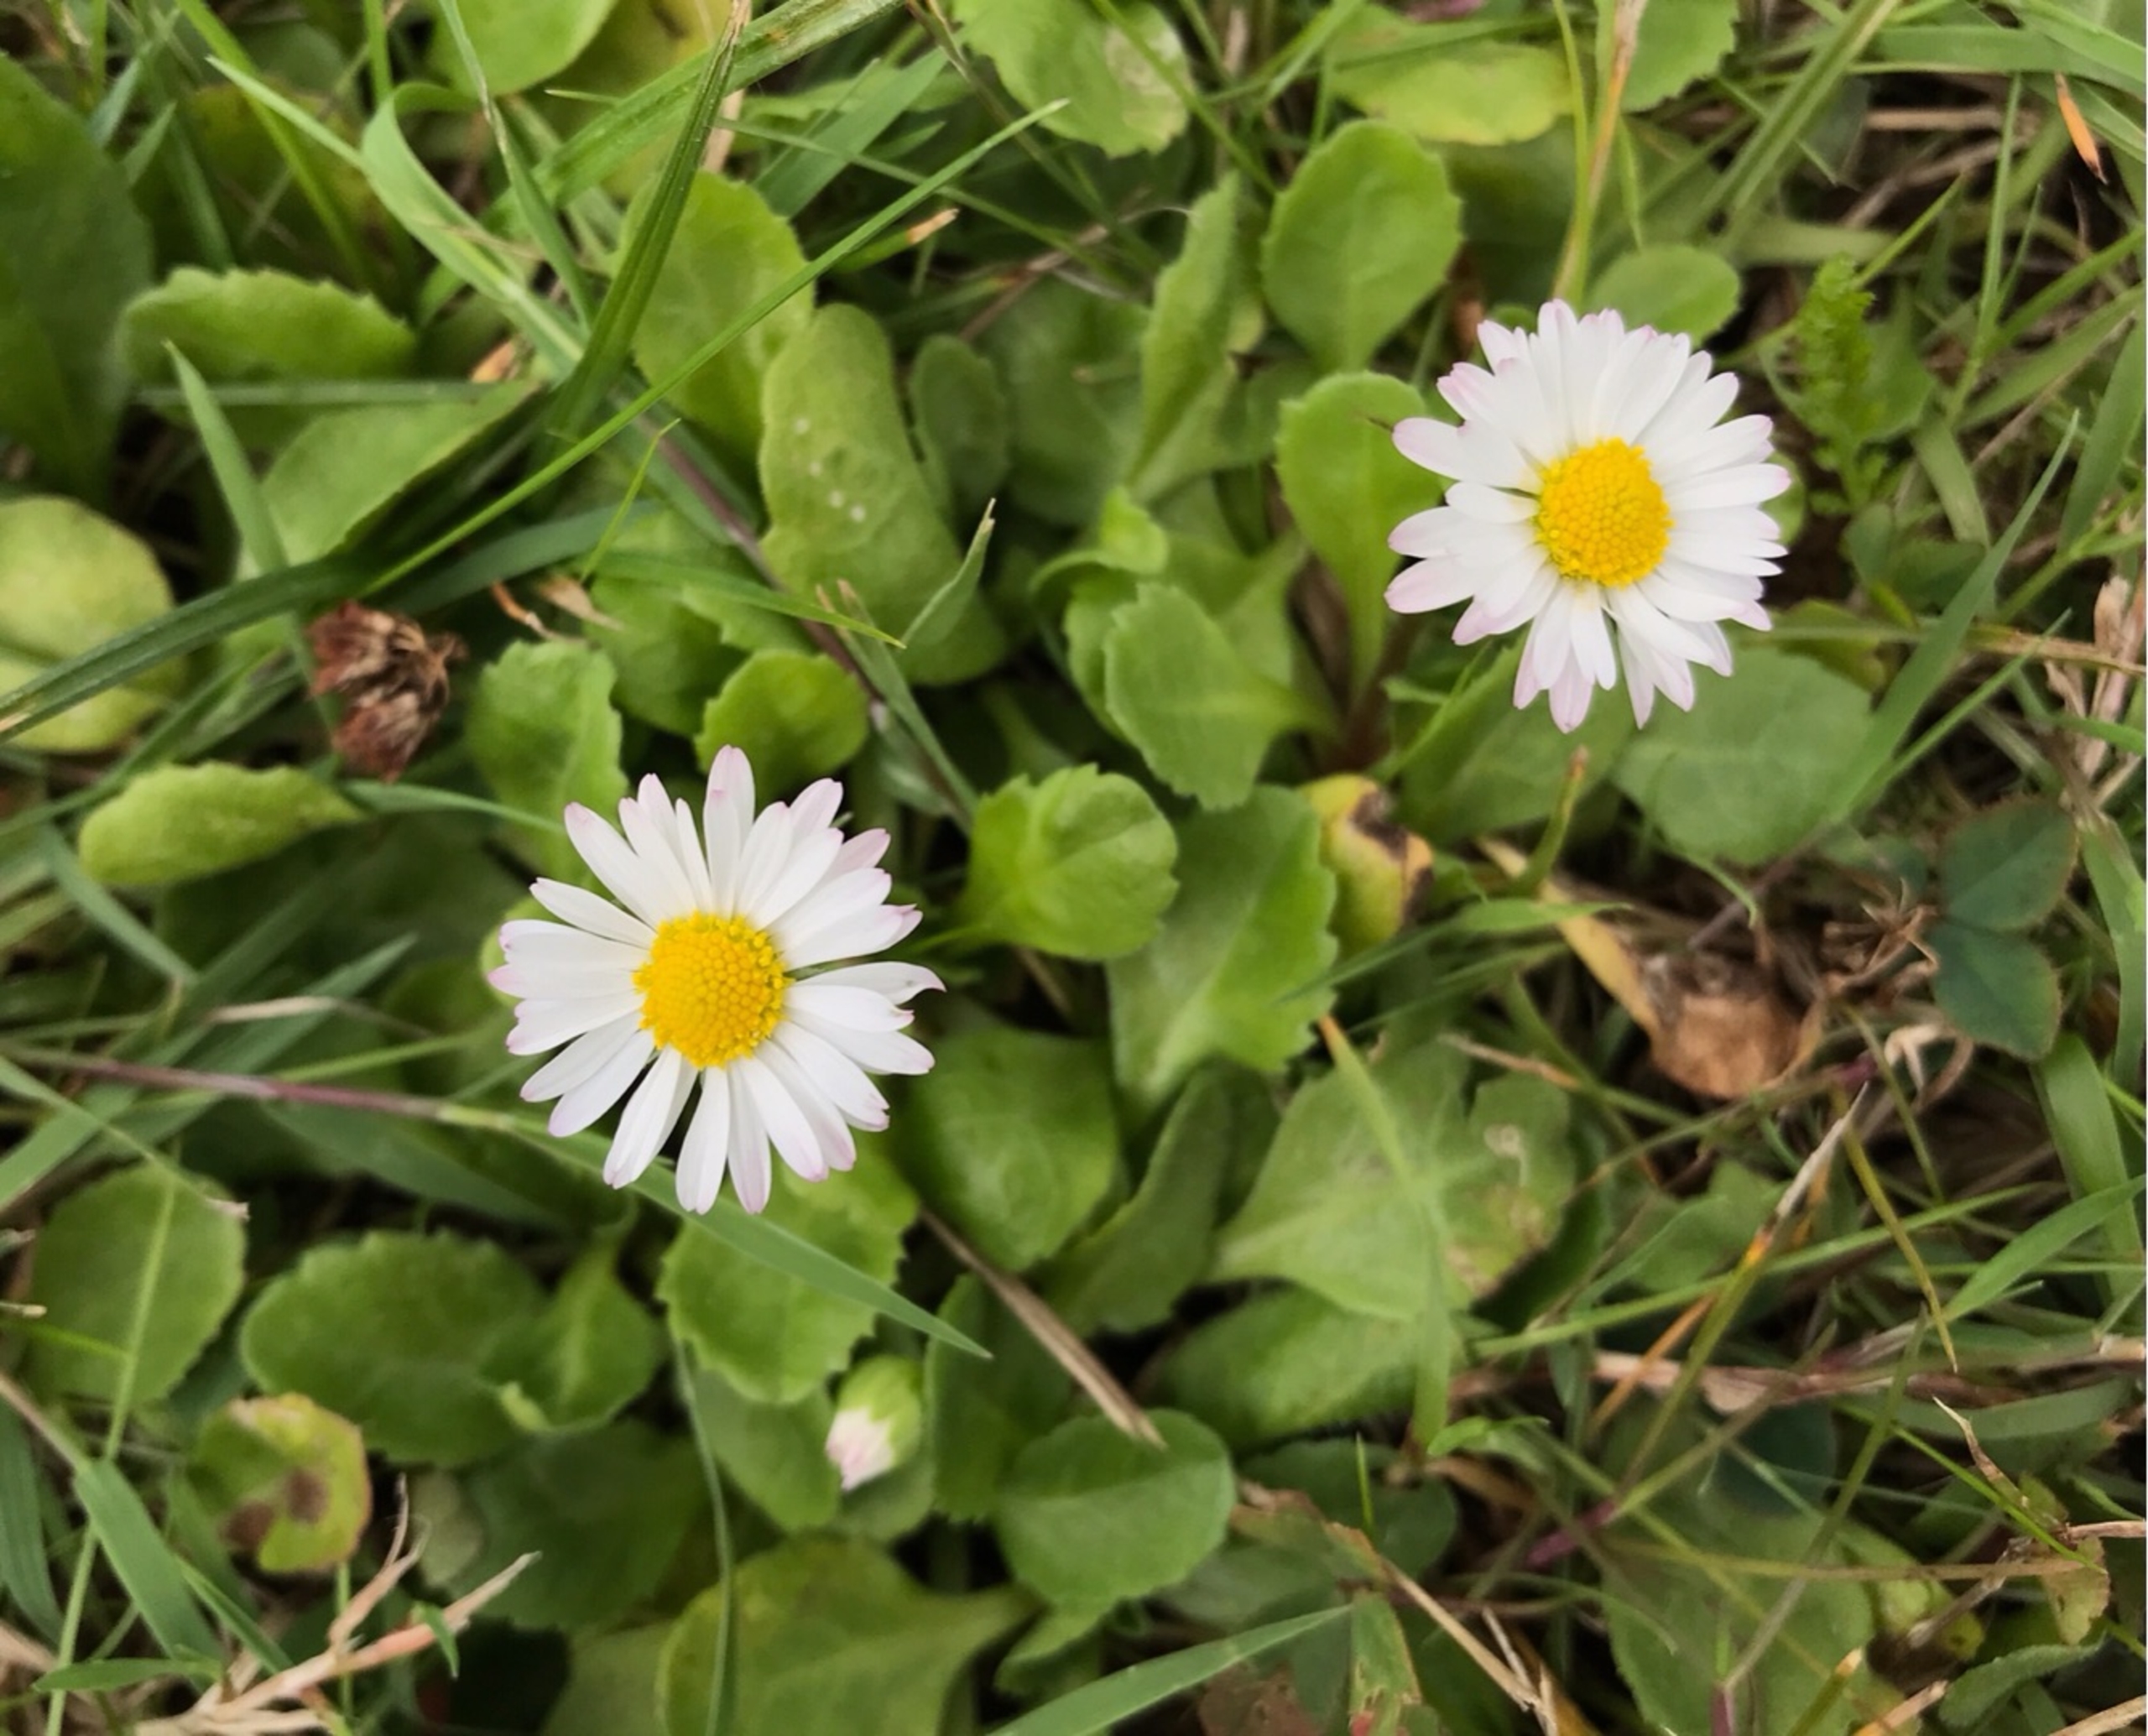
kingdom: Plantae
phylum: Tracheophyta
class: Magnoliopsida
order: Asterales
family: Asteraceae
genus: Bellis
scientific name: Bellis perennis
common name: Tusindfryd
